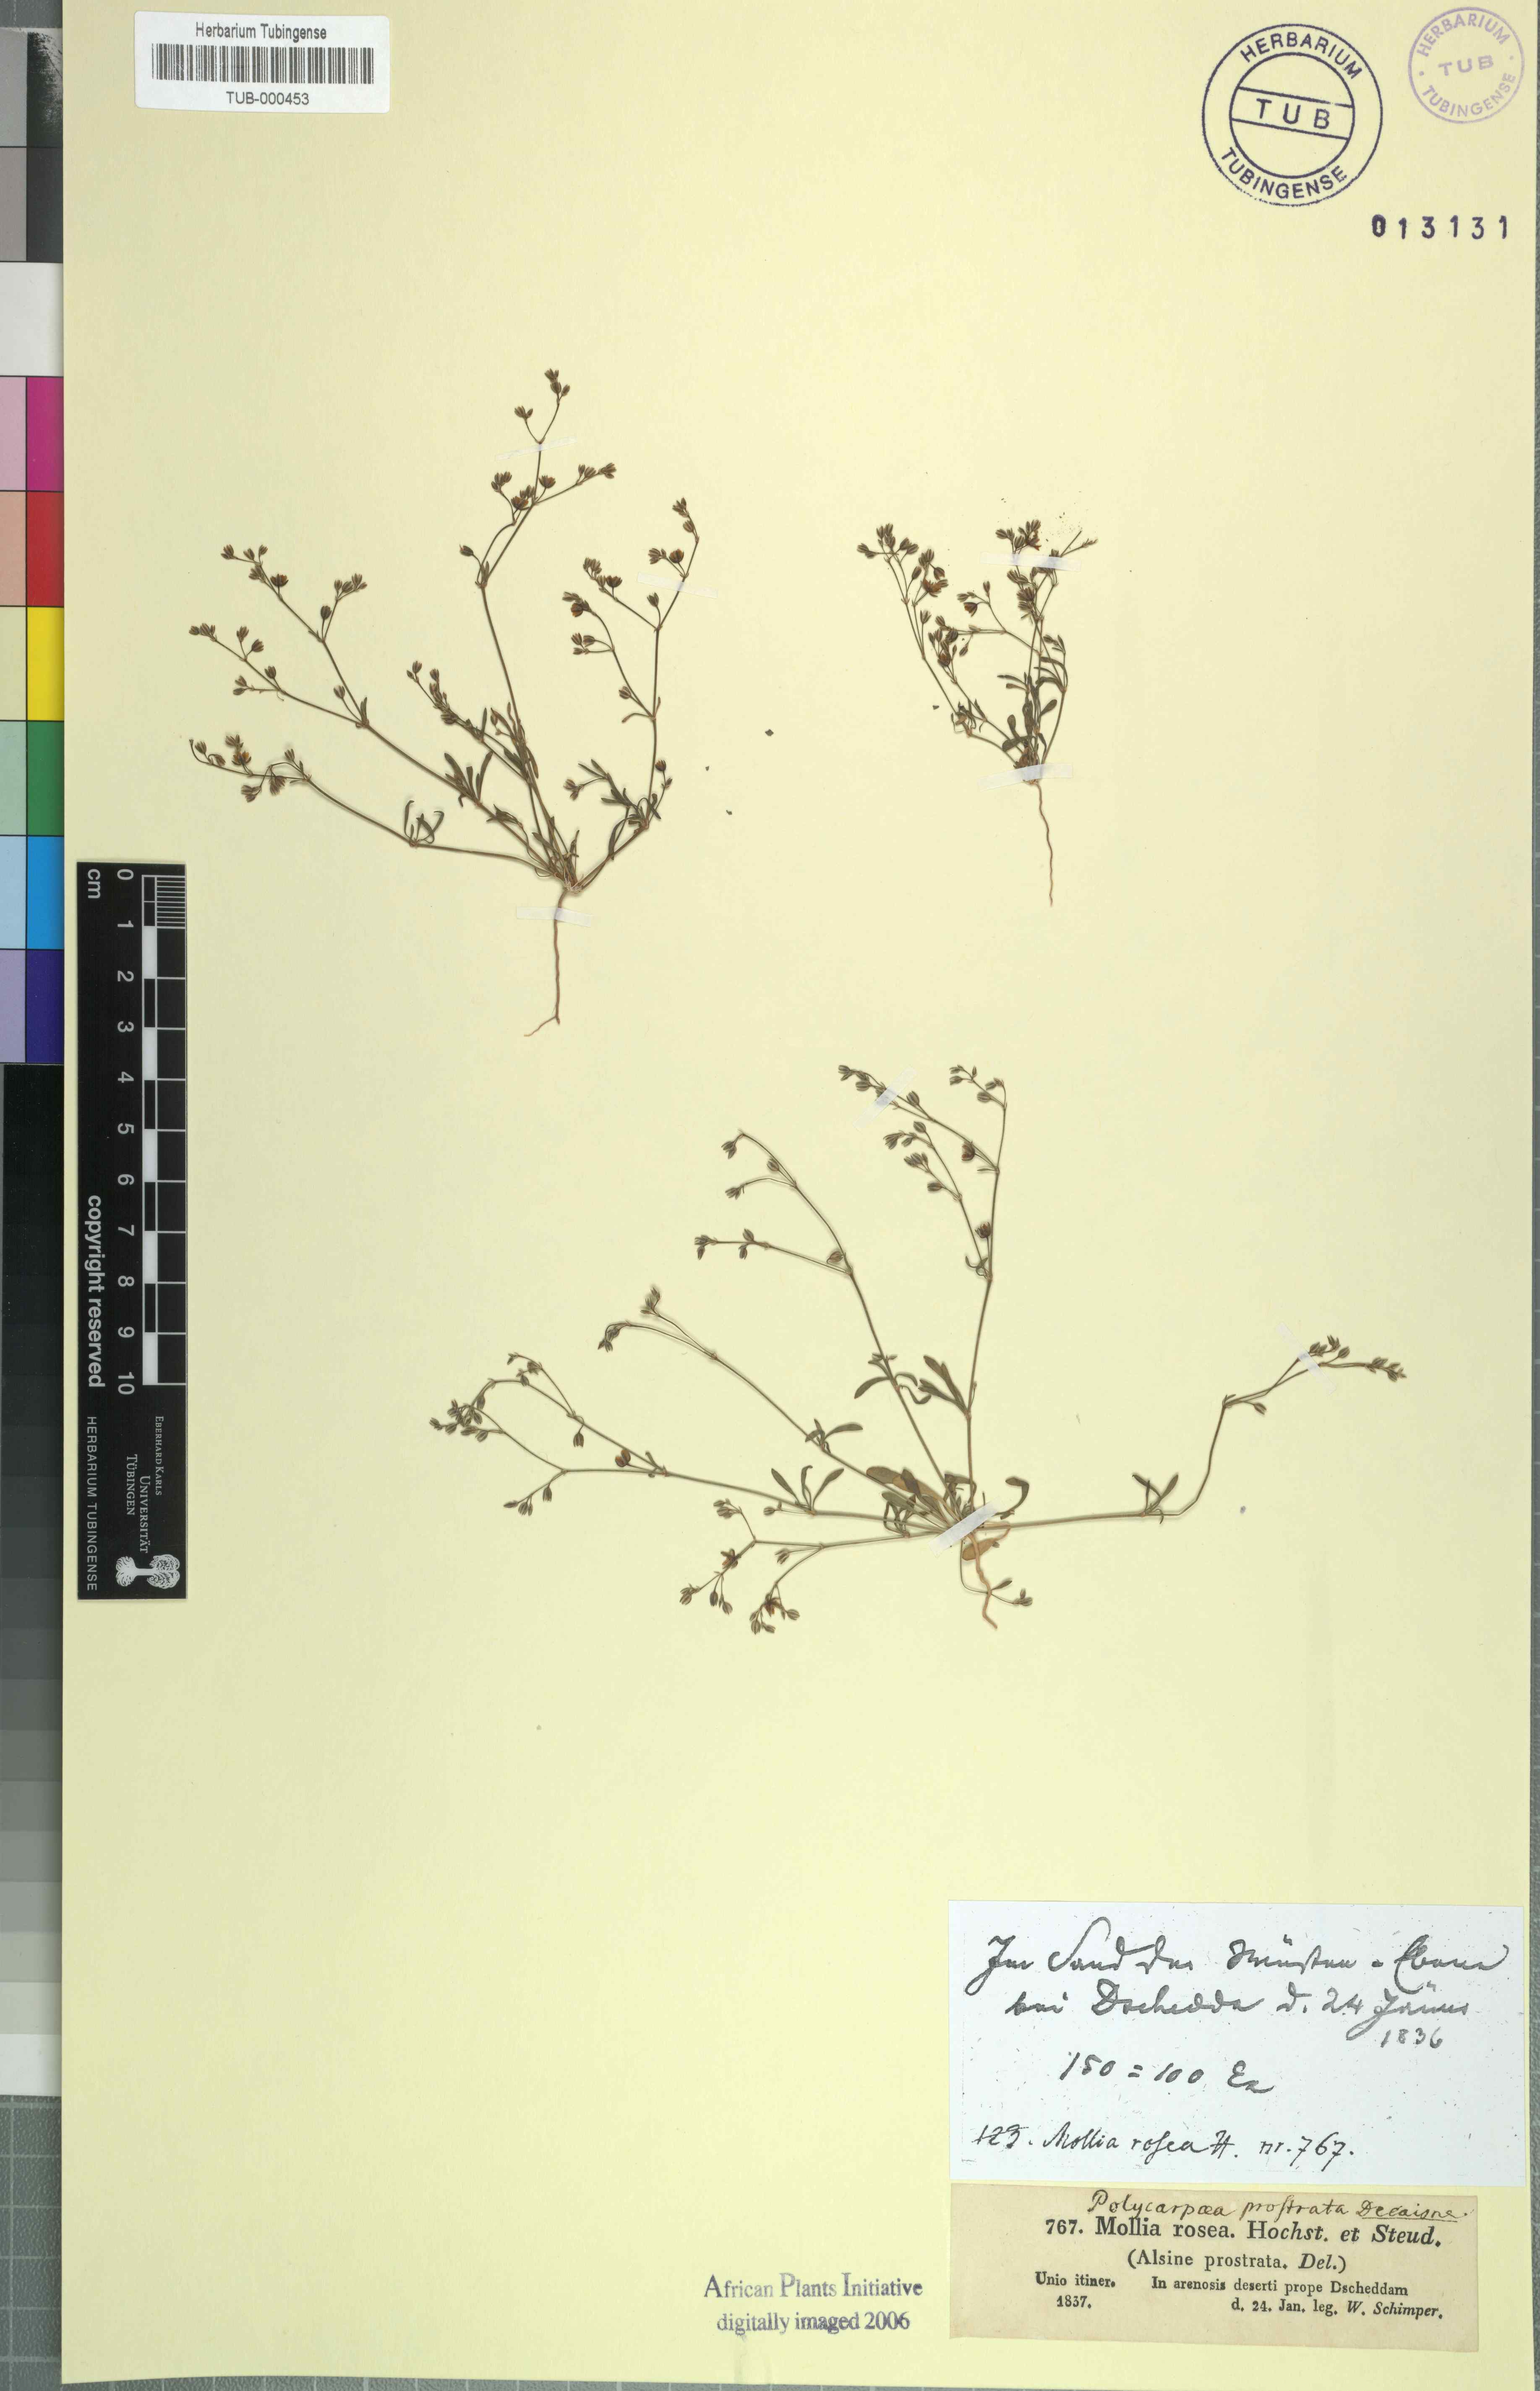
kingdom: Plantae
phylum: Tracheophyta
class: Magnoliopsida
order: Caryophyllales
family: Caryophyllaceae
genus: Polycarpon
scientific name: Polycarpon prostratum
